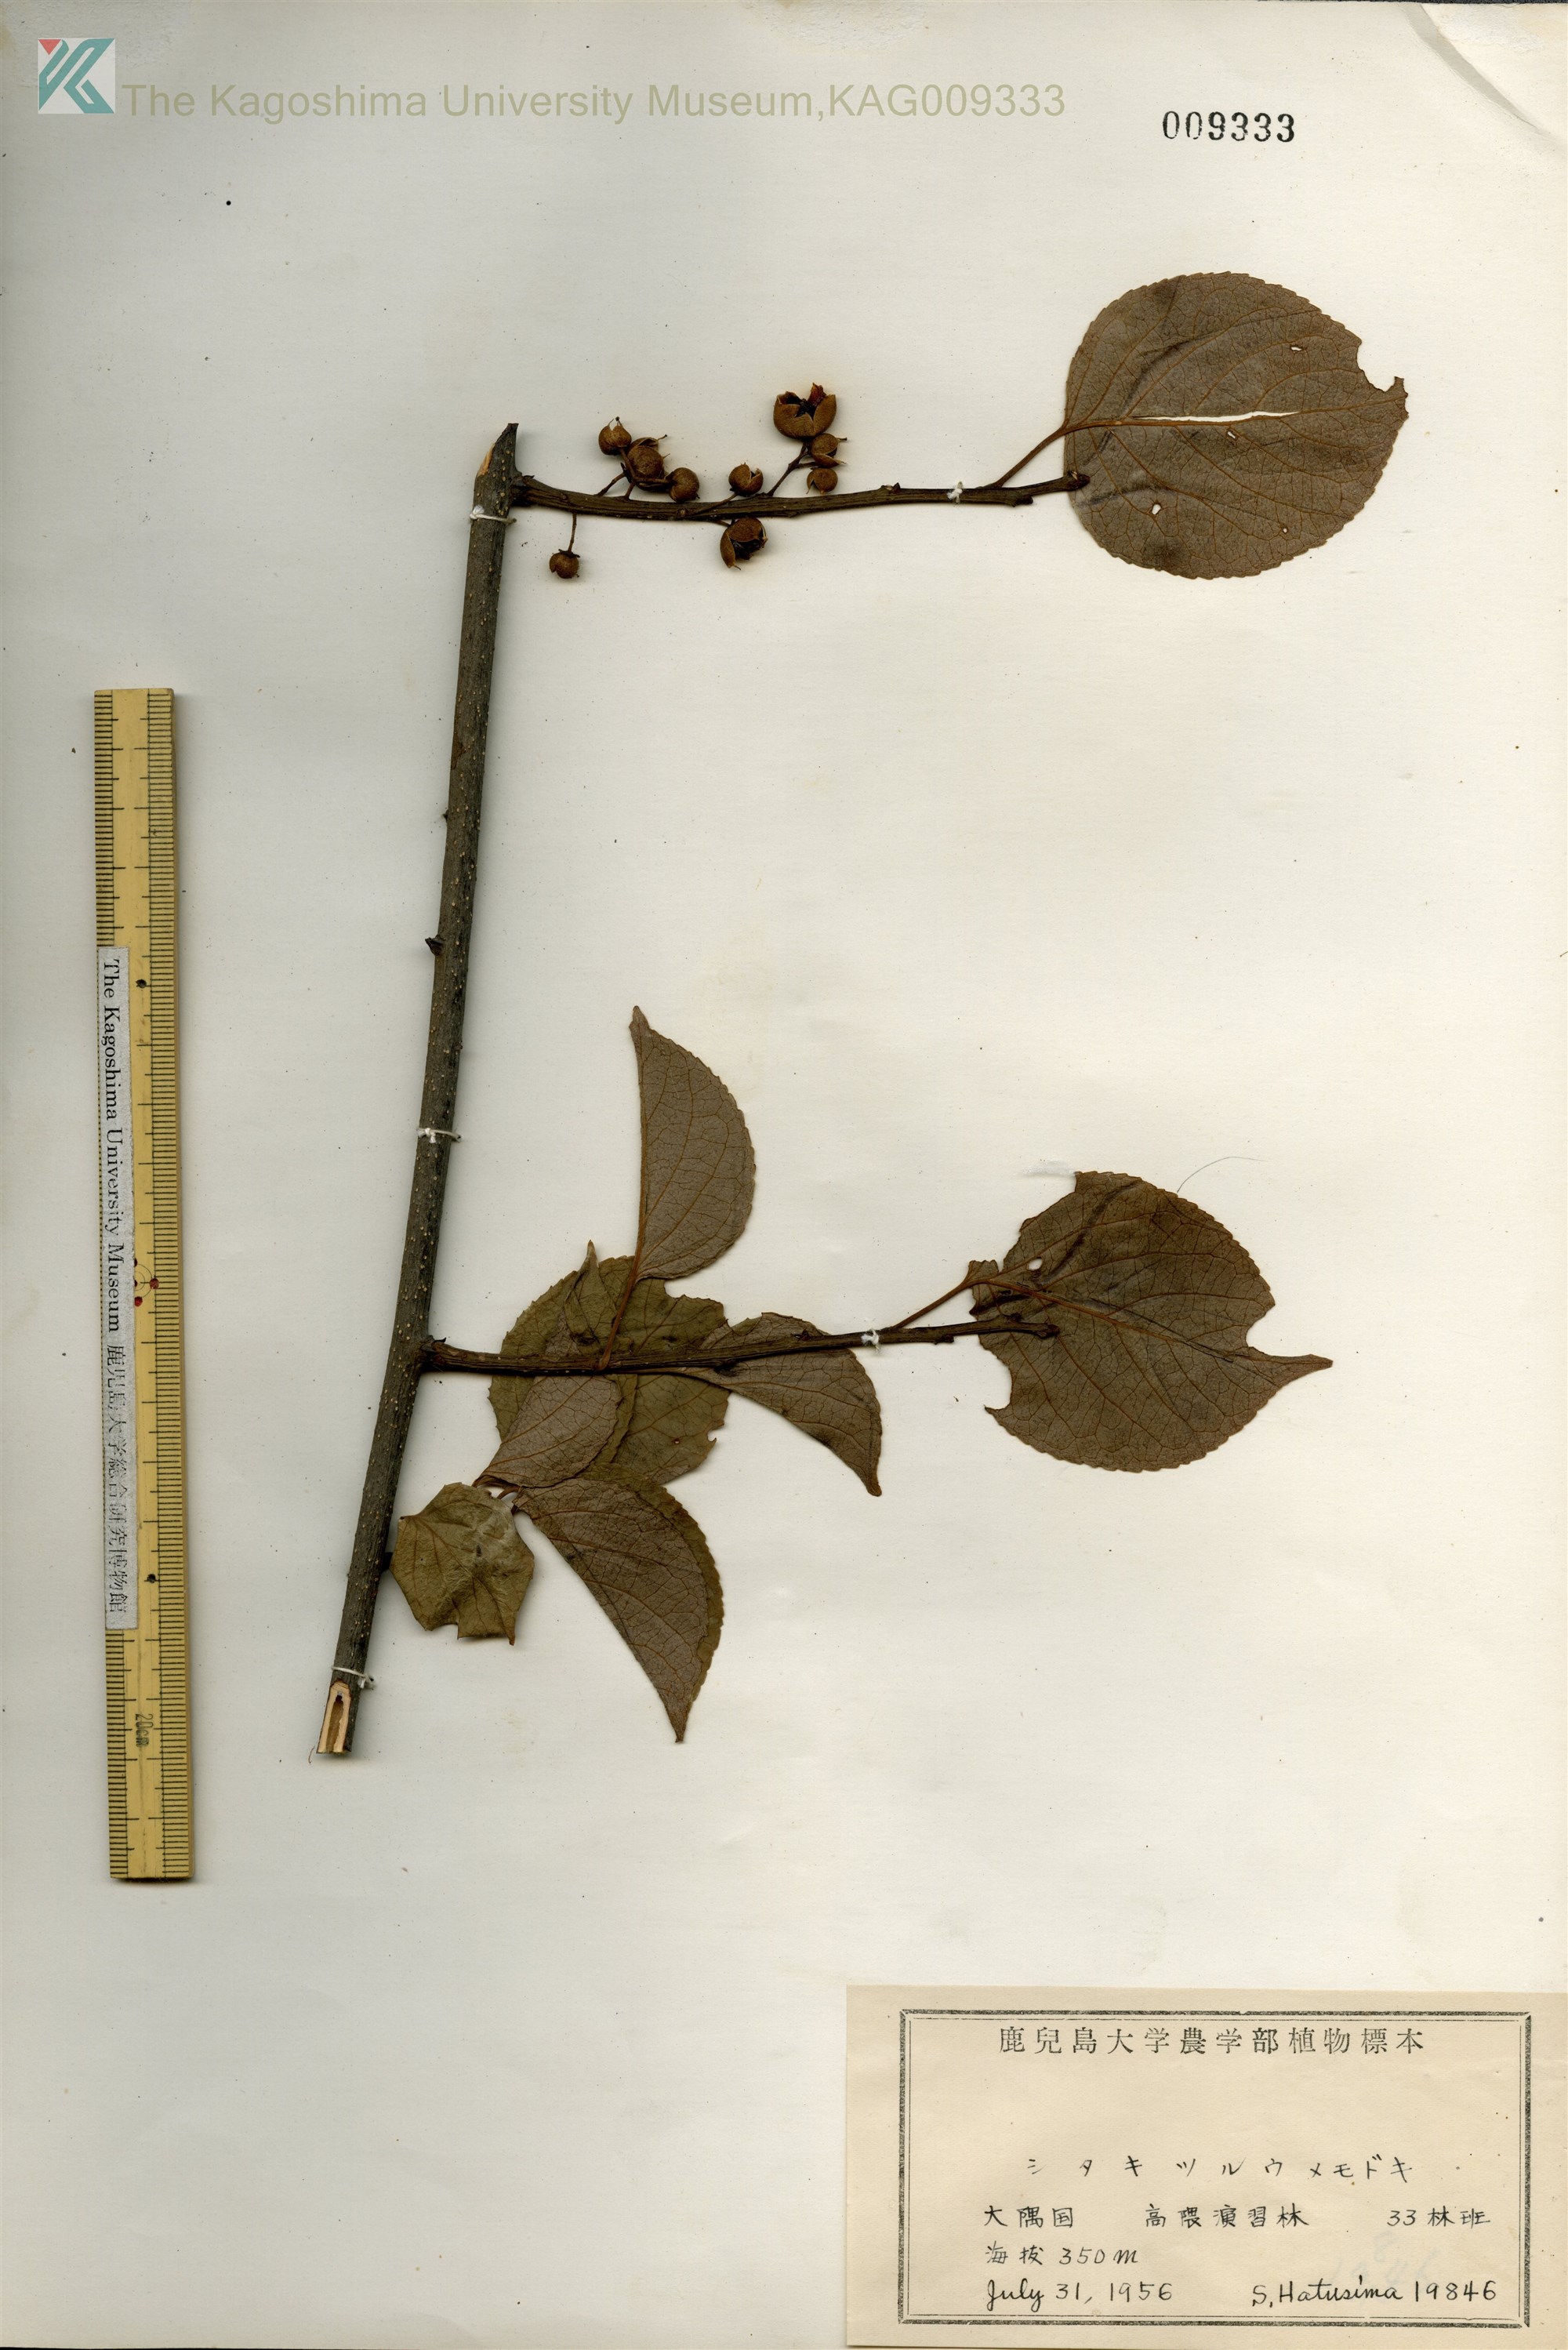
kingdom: Plantae
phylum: Tracheophyta
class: Magnoliopsida
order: Celastrales
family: Celastraceae
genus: Celastrus
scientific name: Celastrus stephanotifolius
